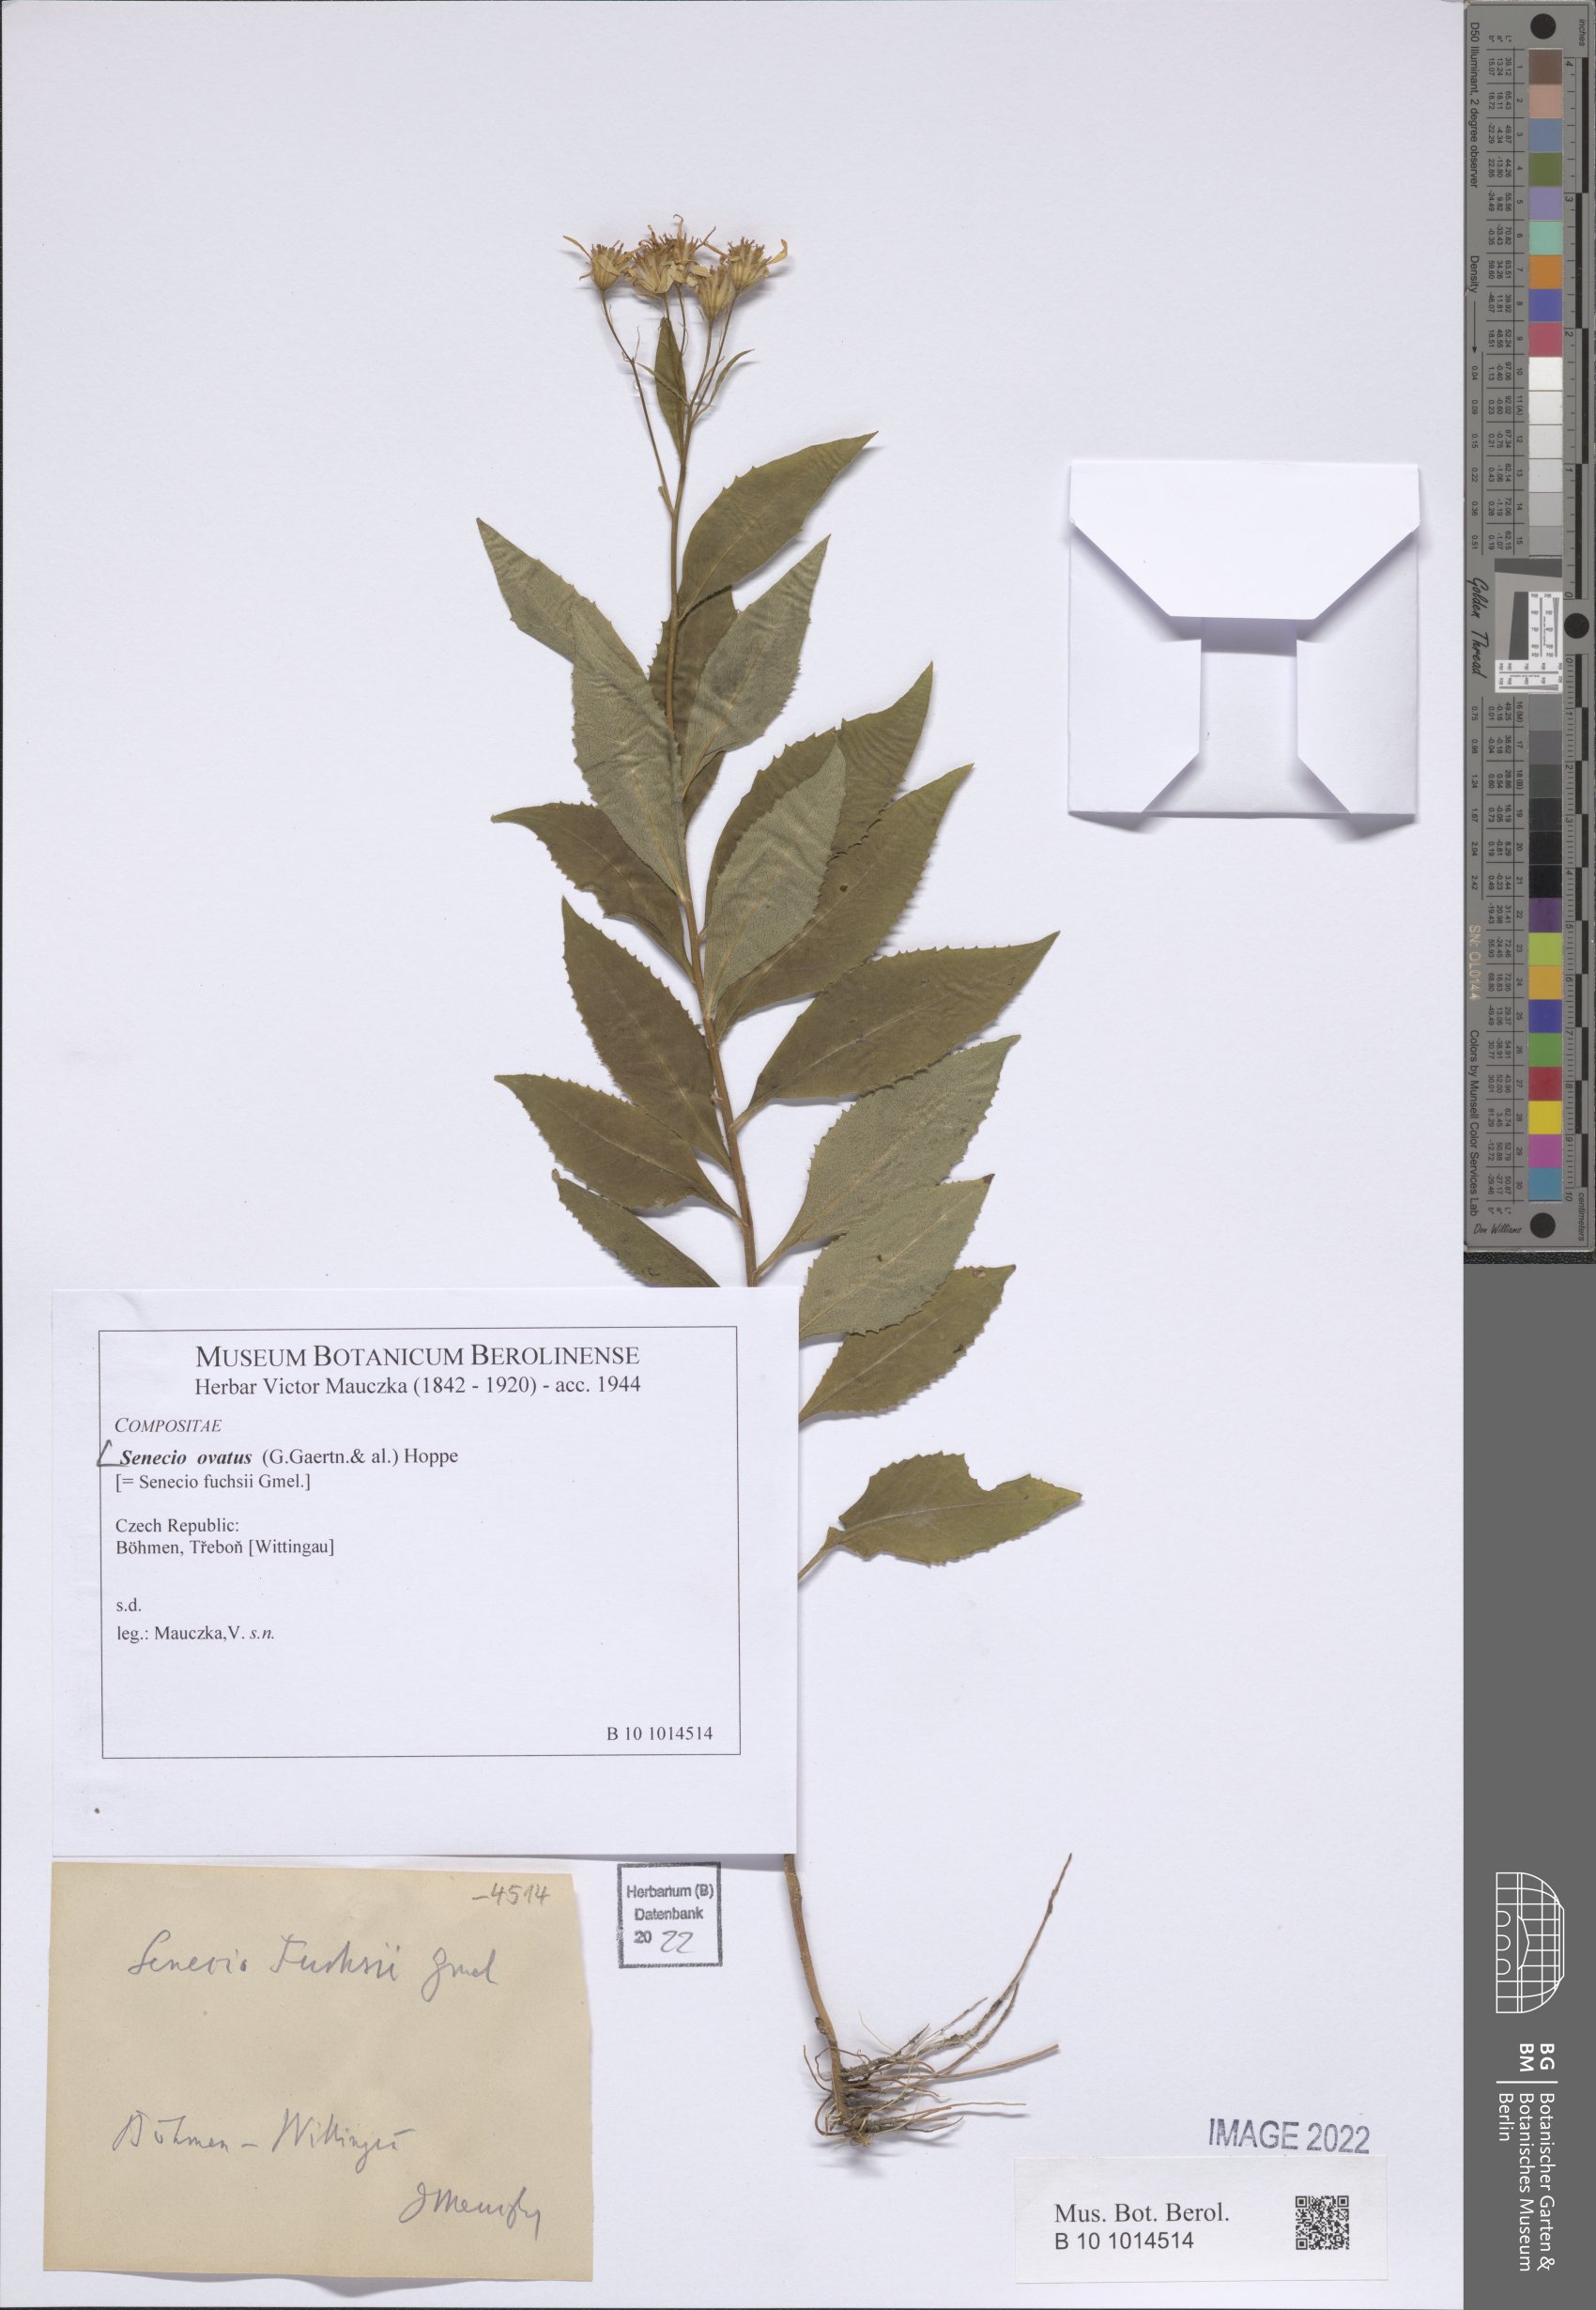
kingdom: Plantae
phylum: Tracheophyta
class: Magnoliopsida
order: Asterales
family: Asteraceae
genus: Senecio
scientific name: Senecio ovatus
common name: Wood ragwort
